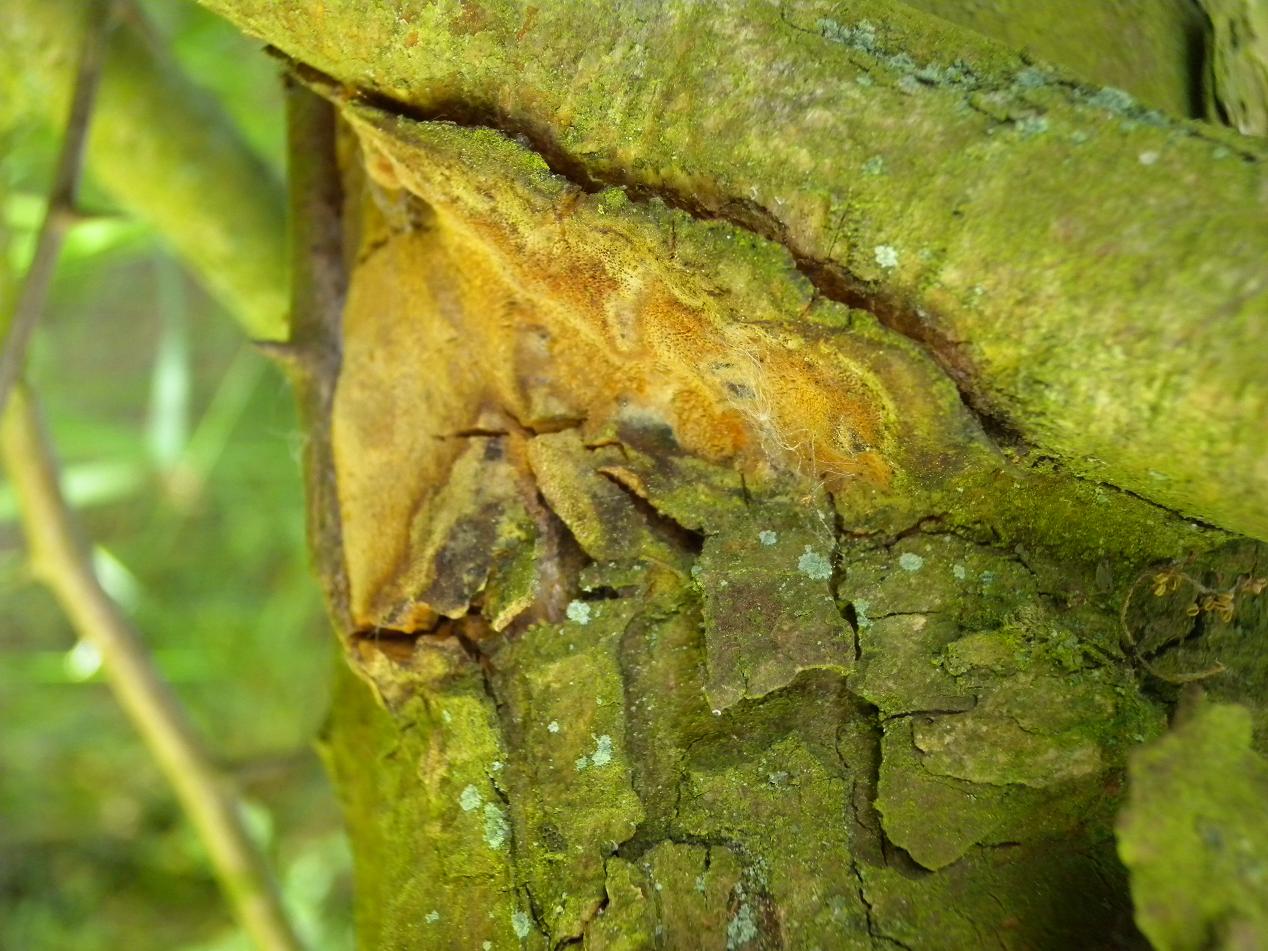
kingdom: Fungi
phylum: Basidiomycota
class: Agaricomycetes
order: Hymenochaetales
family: Hymenochaetaceae
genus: Fuscoporia
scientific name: Fuscoporia ferrea
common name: skorpe-ildporesvamp
